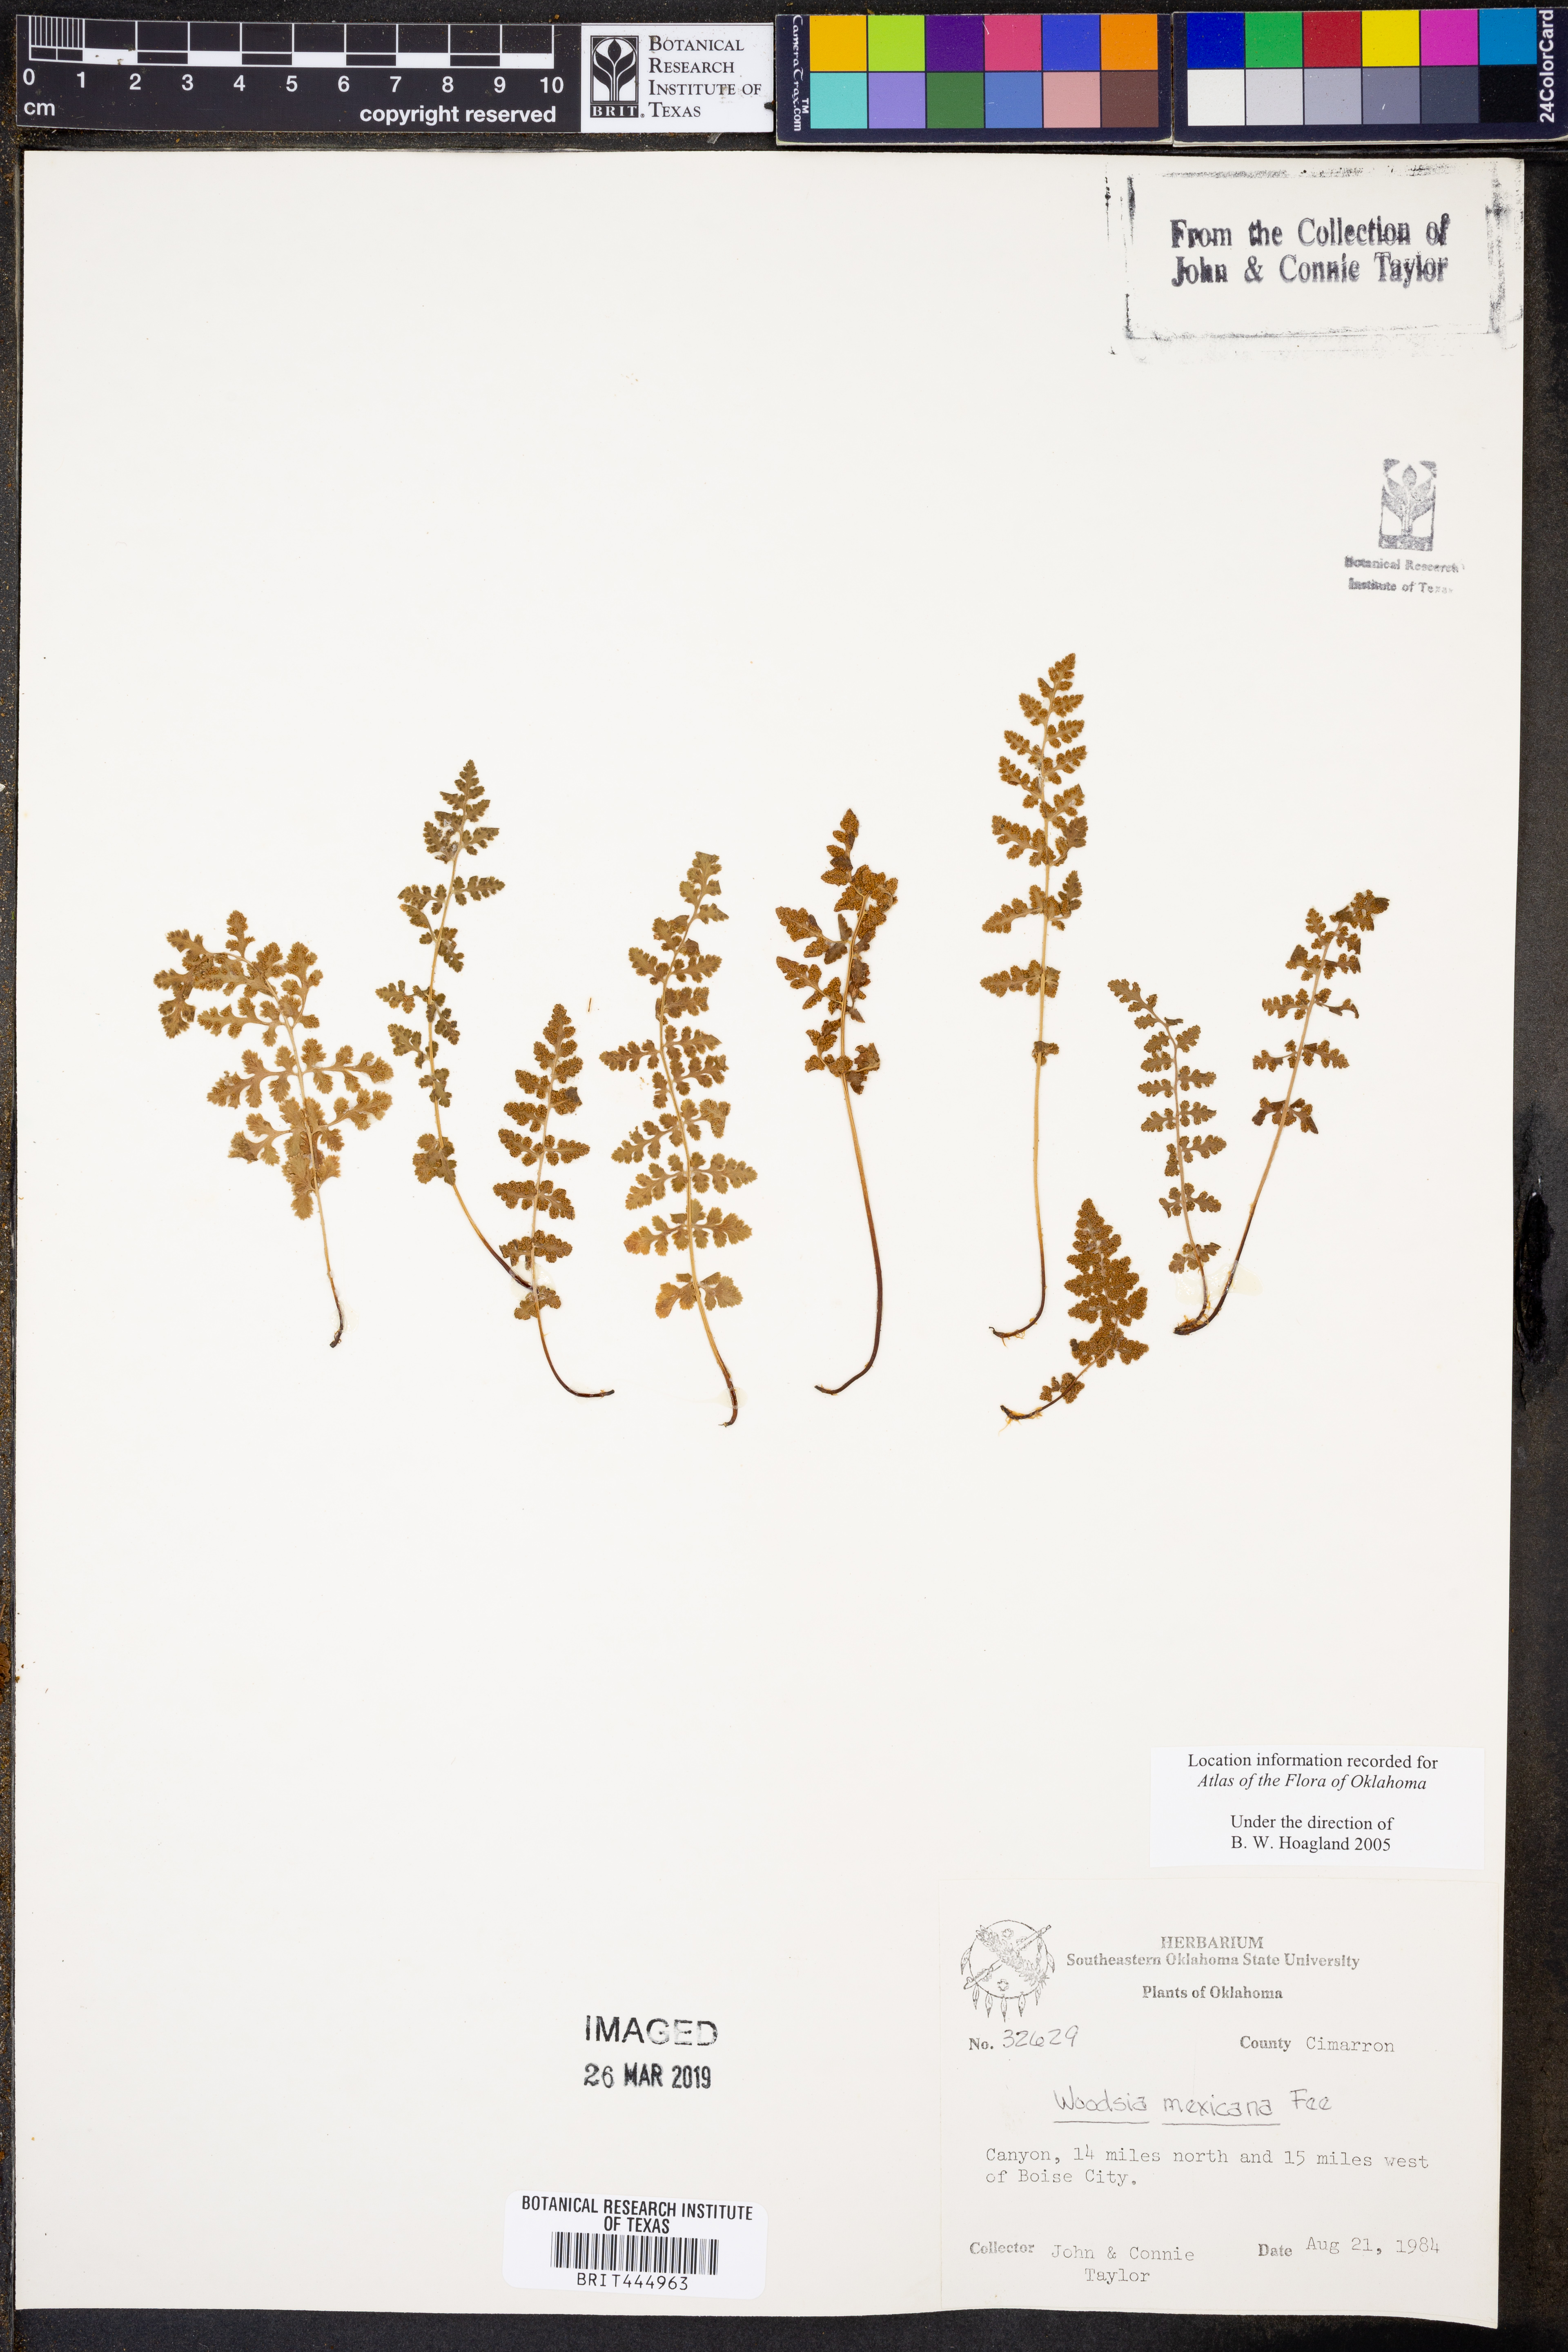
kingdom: Plantae
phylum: Tracheophyta
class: Polypodiopsida
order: Polypodiales
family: Woodsiaceae
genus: Physematium
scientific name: Physematium mexicanum
